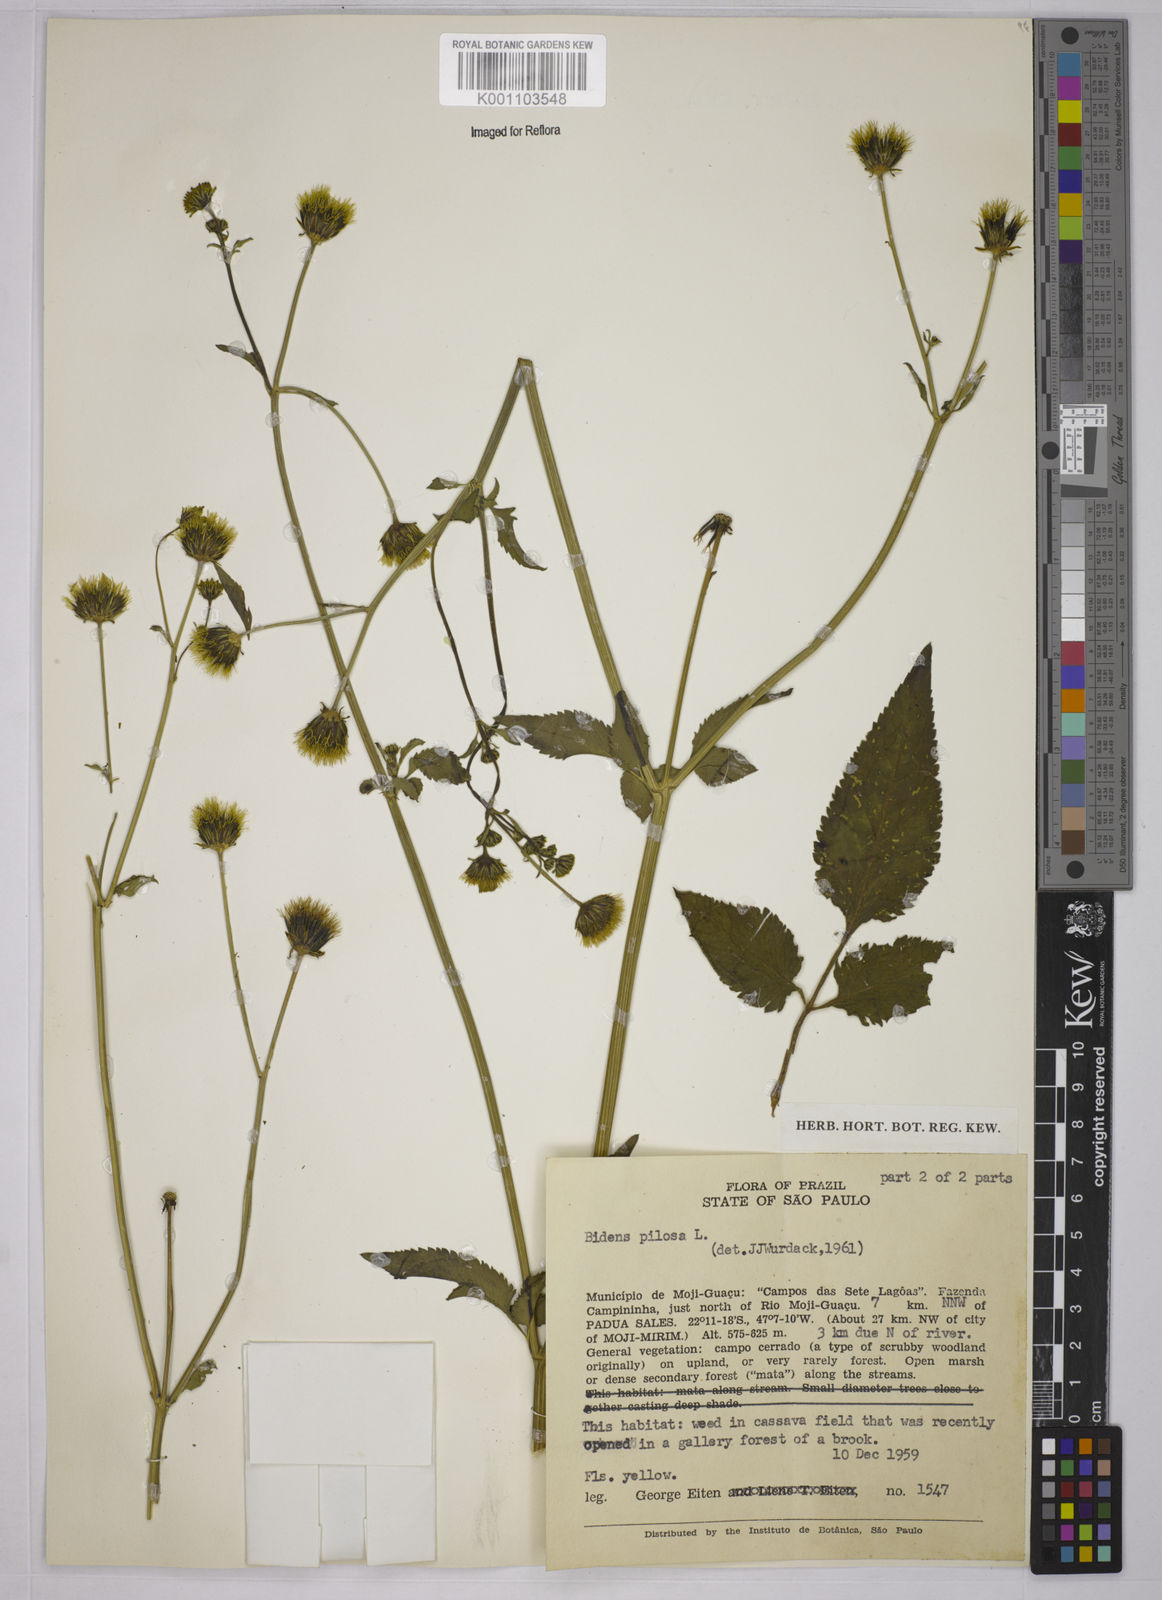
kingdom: Plantae
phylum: Tracheophyta
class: Magnoliopsida
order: Asterales
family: Asteraceae
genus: Bidens
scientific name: Bidens pilosa
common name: Black-jack
